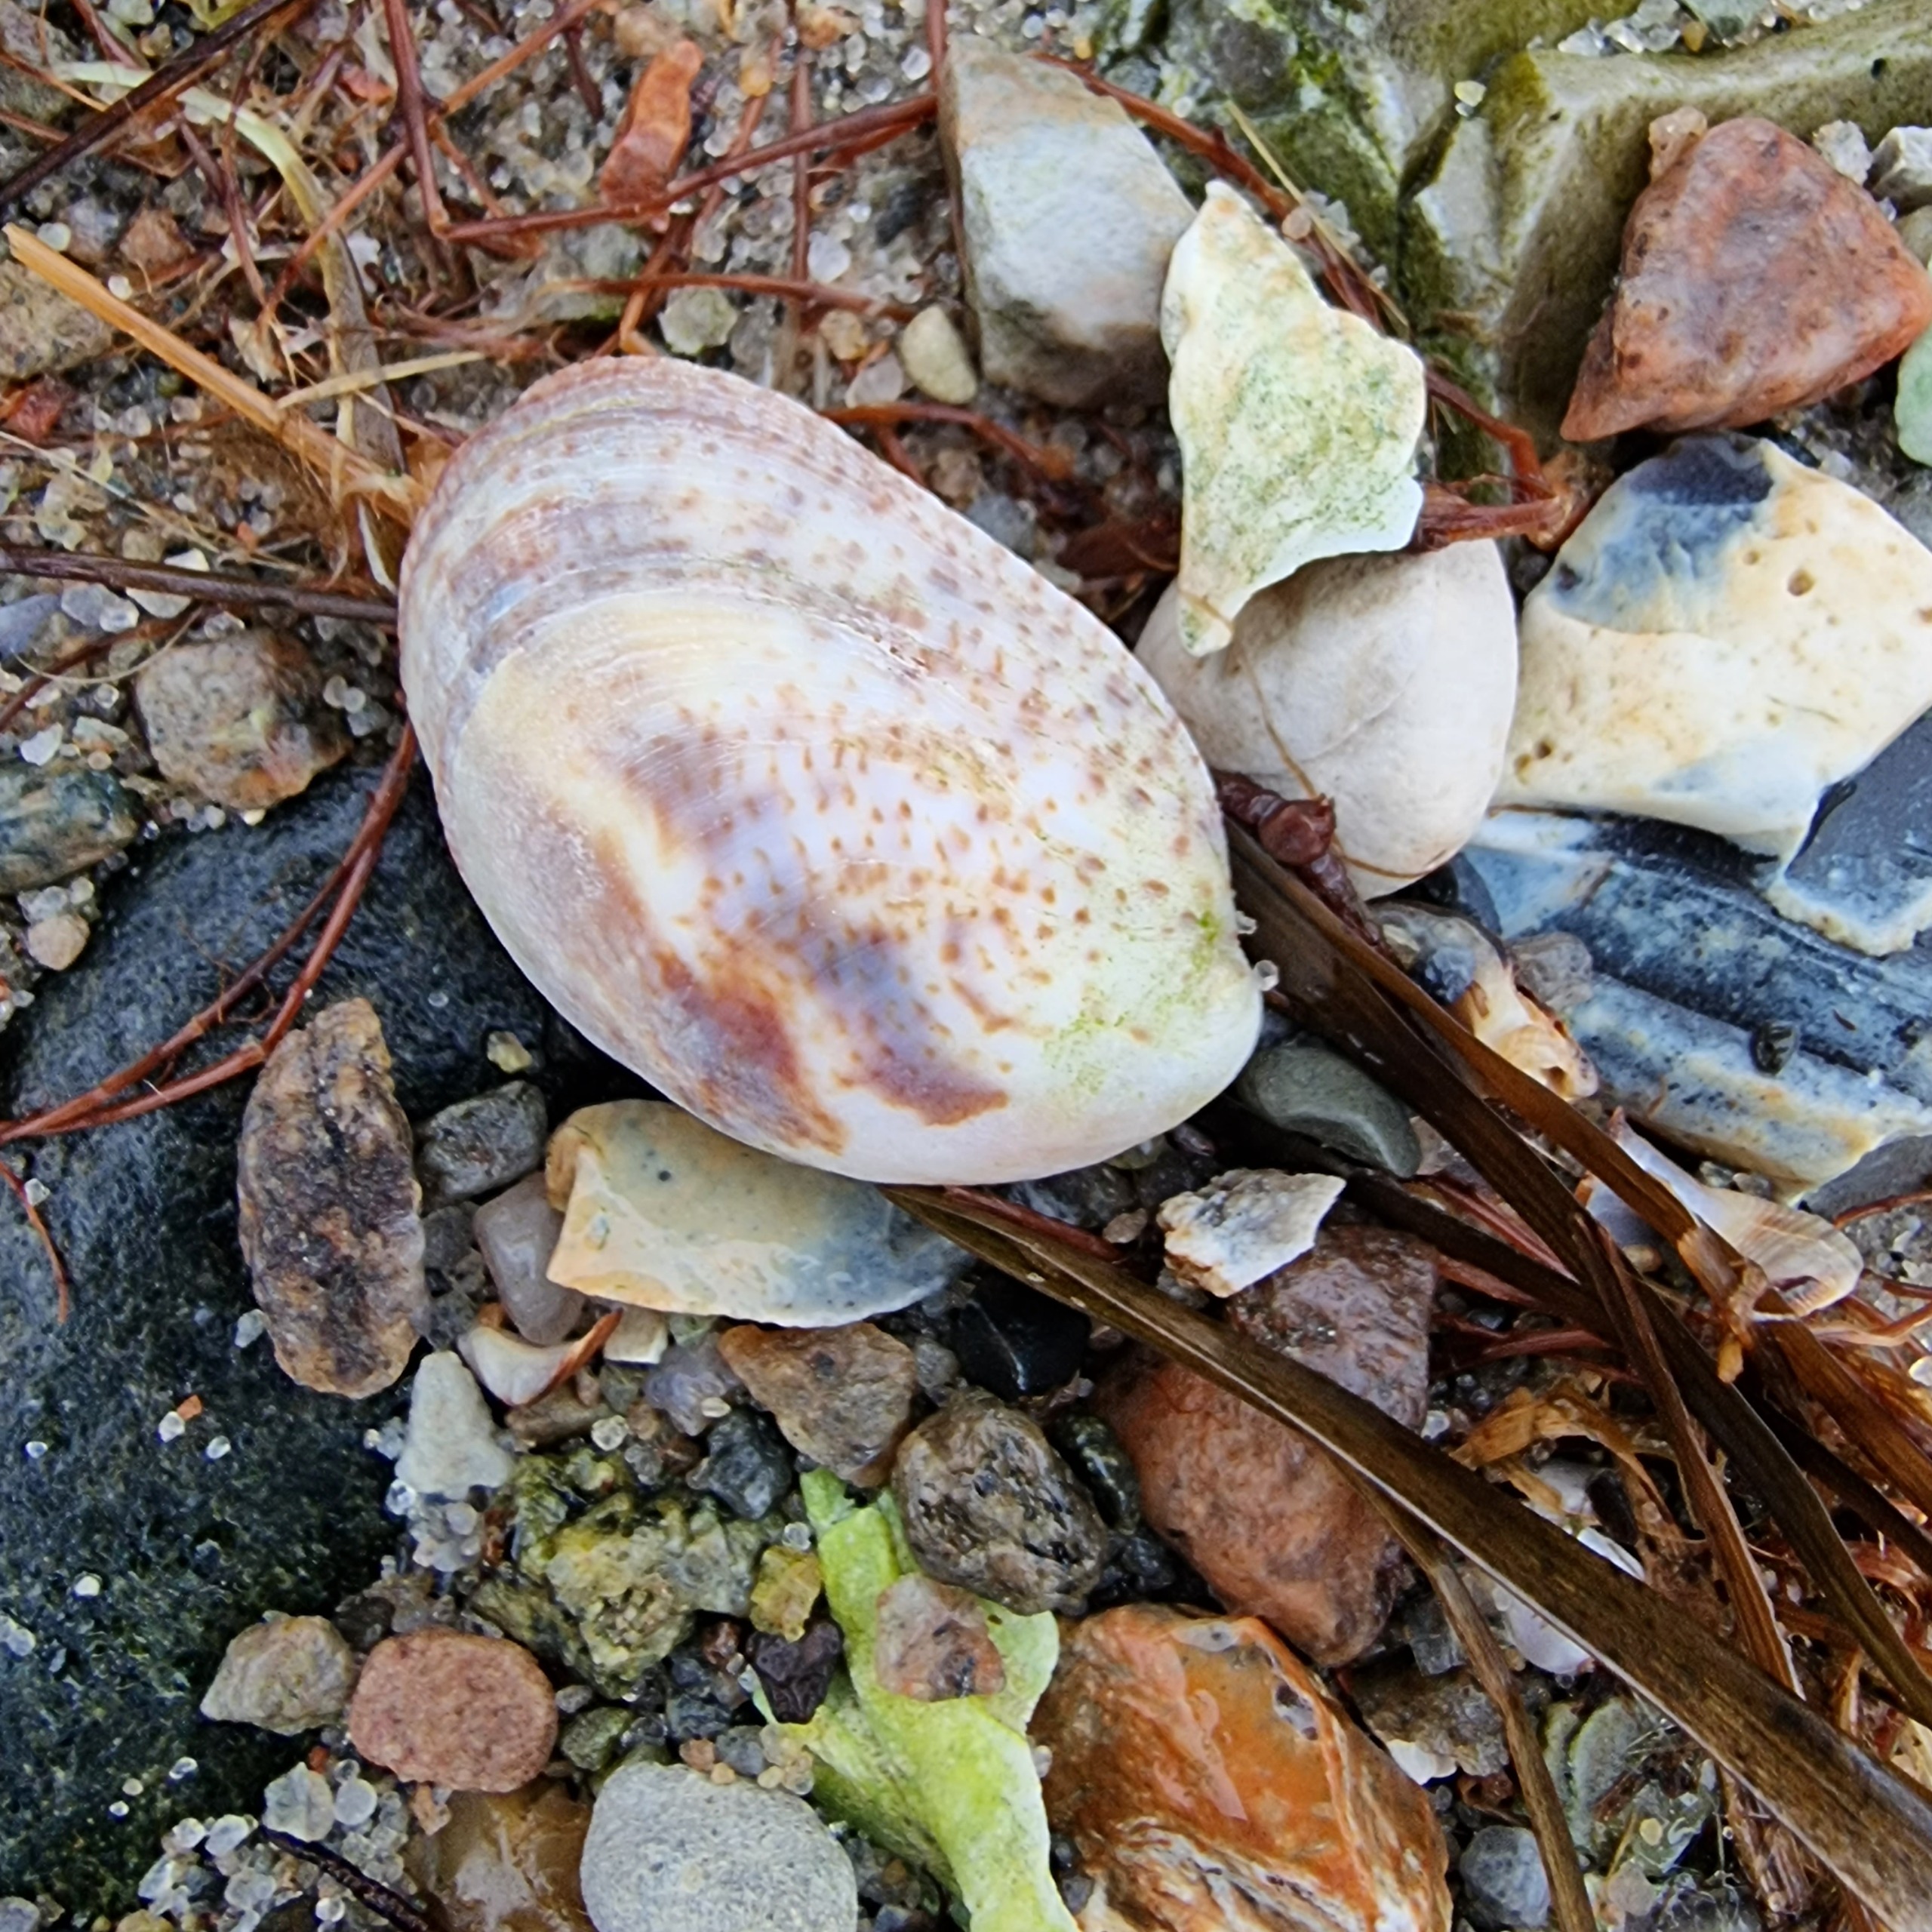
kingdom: Animalia
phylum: Mollusca
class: Gastropoda
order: Littorinimorpha
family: Calyptraeidae
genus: Crepidula
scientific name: Crepidula fornicata
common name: Tøffelsnegl
